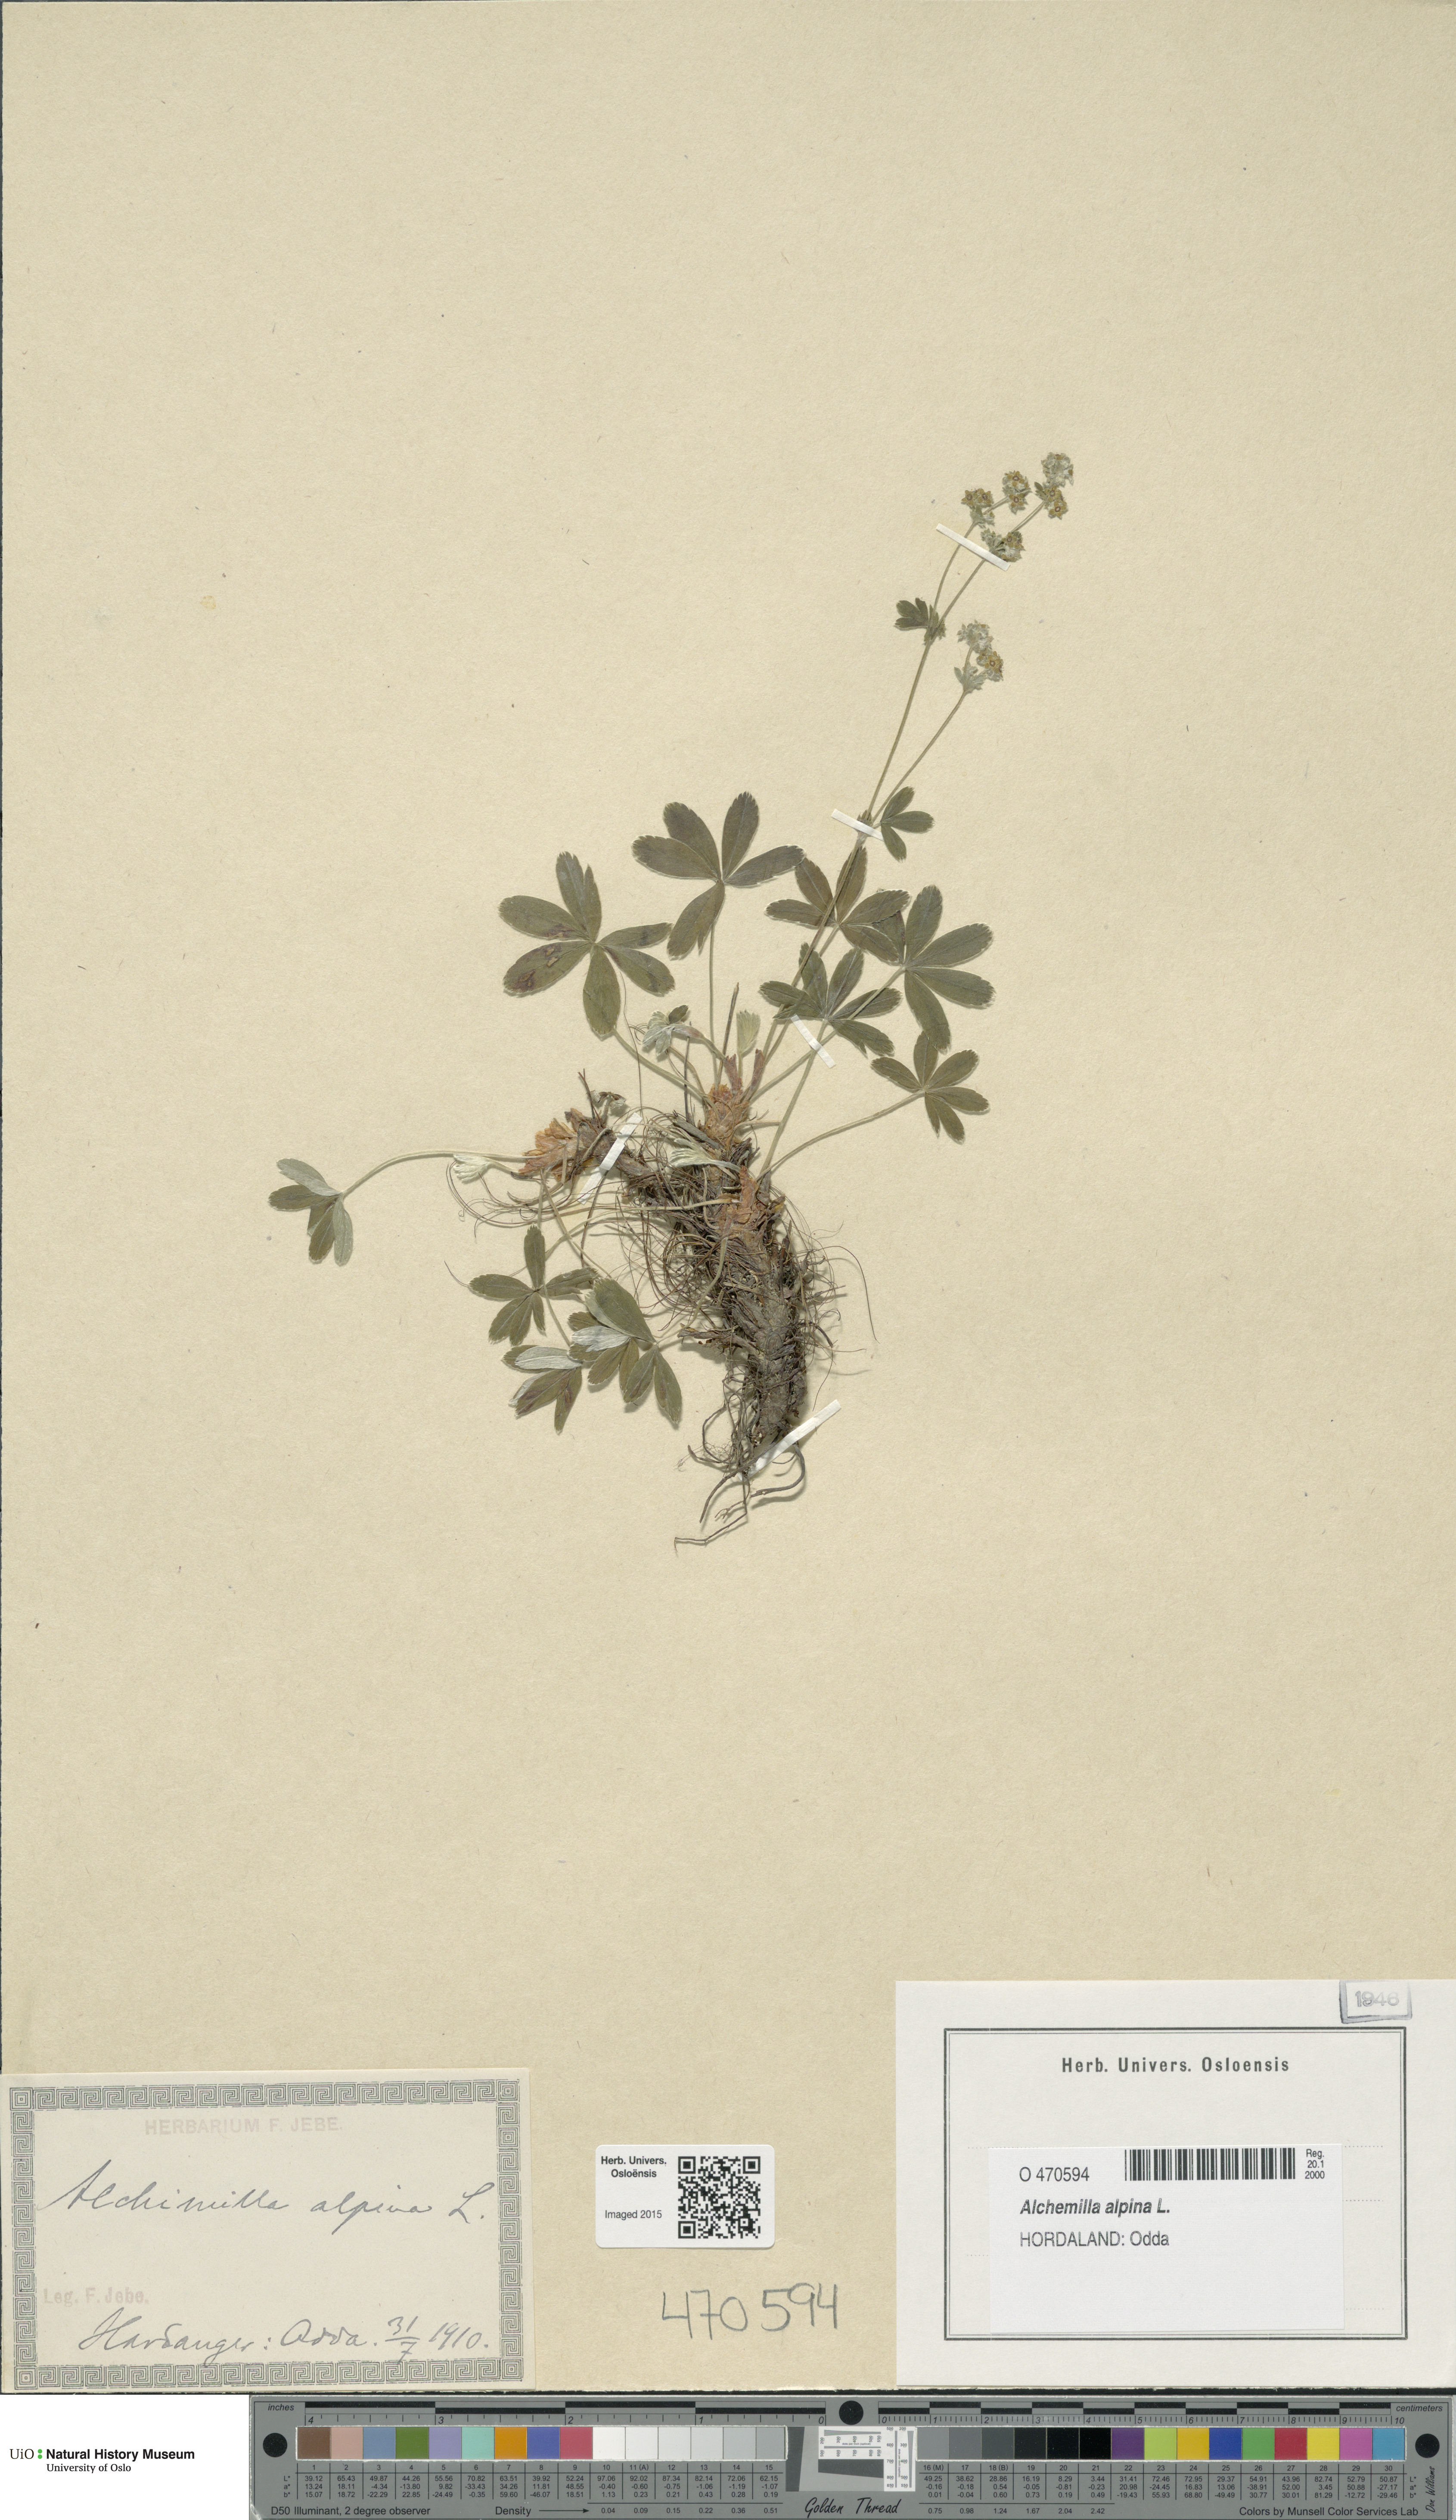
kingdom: Plantae
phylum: Tracheophyta
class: Magnoliopsida
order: Rosales
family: Rosaceae
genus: Alchemilla
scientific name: Alchemilla alpina
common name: Alpine lady's-mantle
